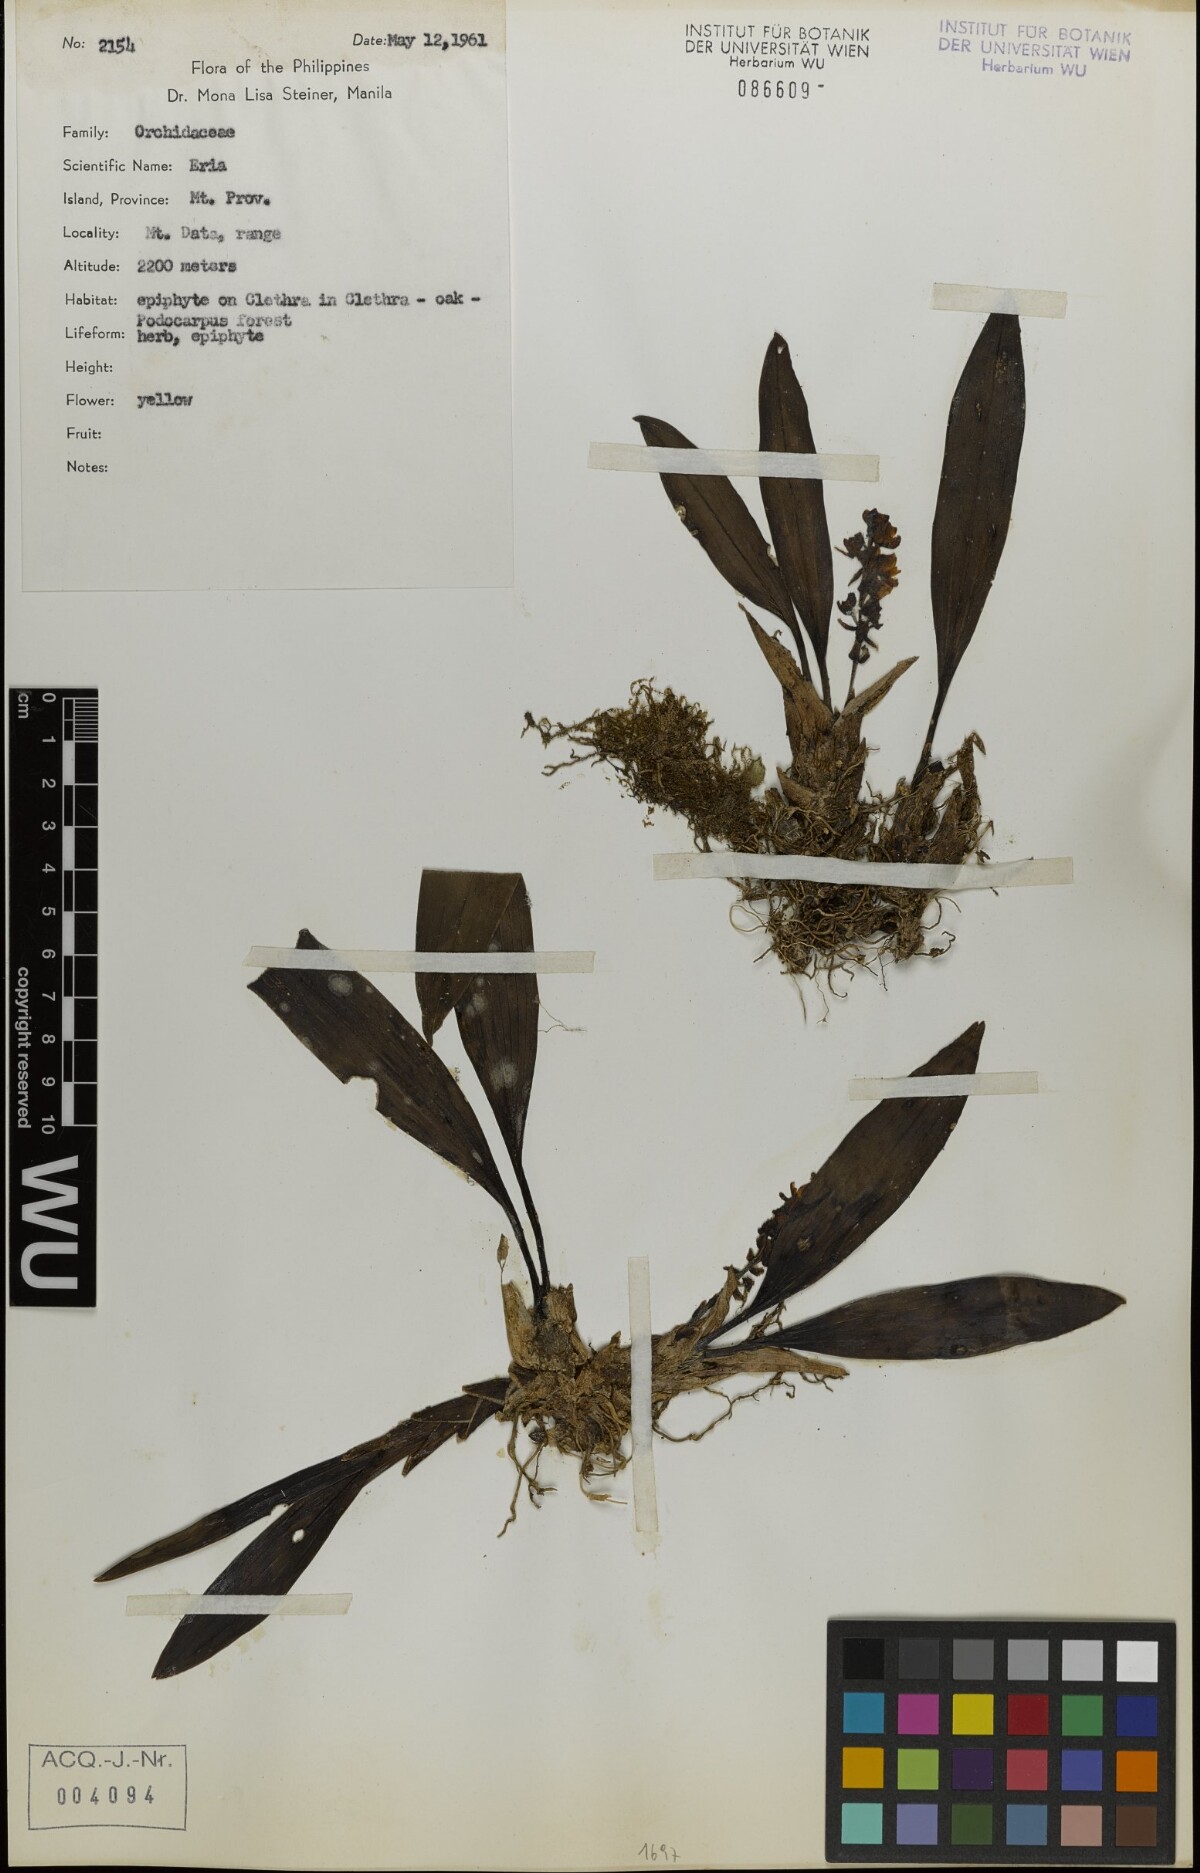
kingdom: Plantae
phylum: Tracheophyta
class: Liliopsida
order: Asparagales
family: Orchidaceae
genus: Eria
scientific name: Eria
